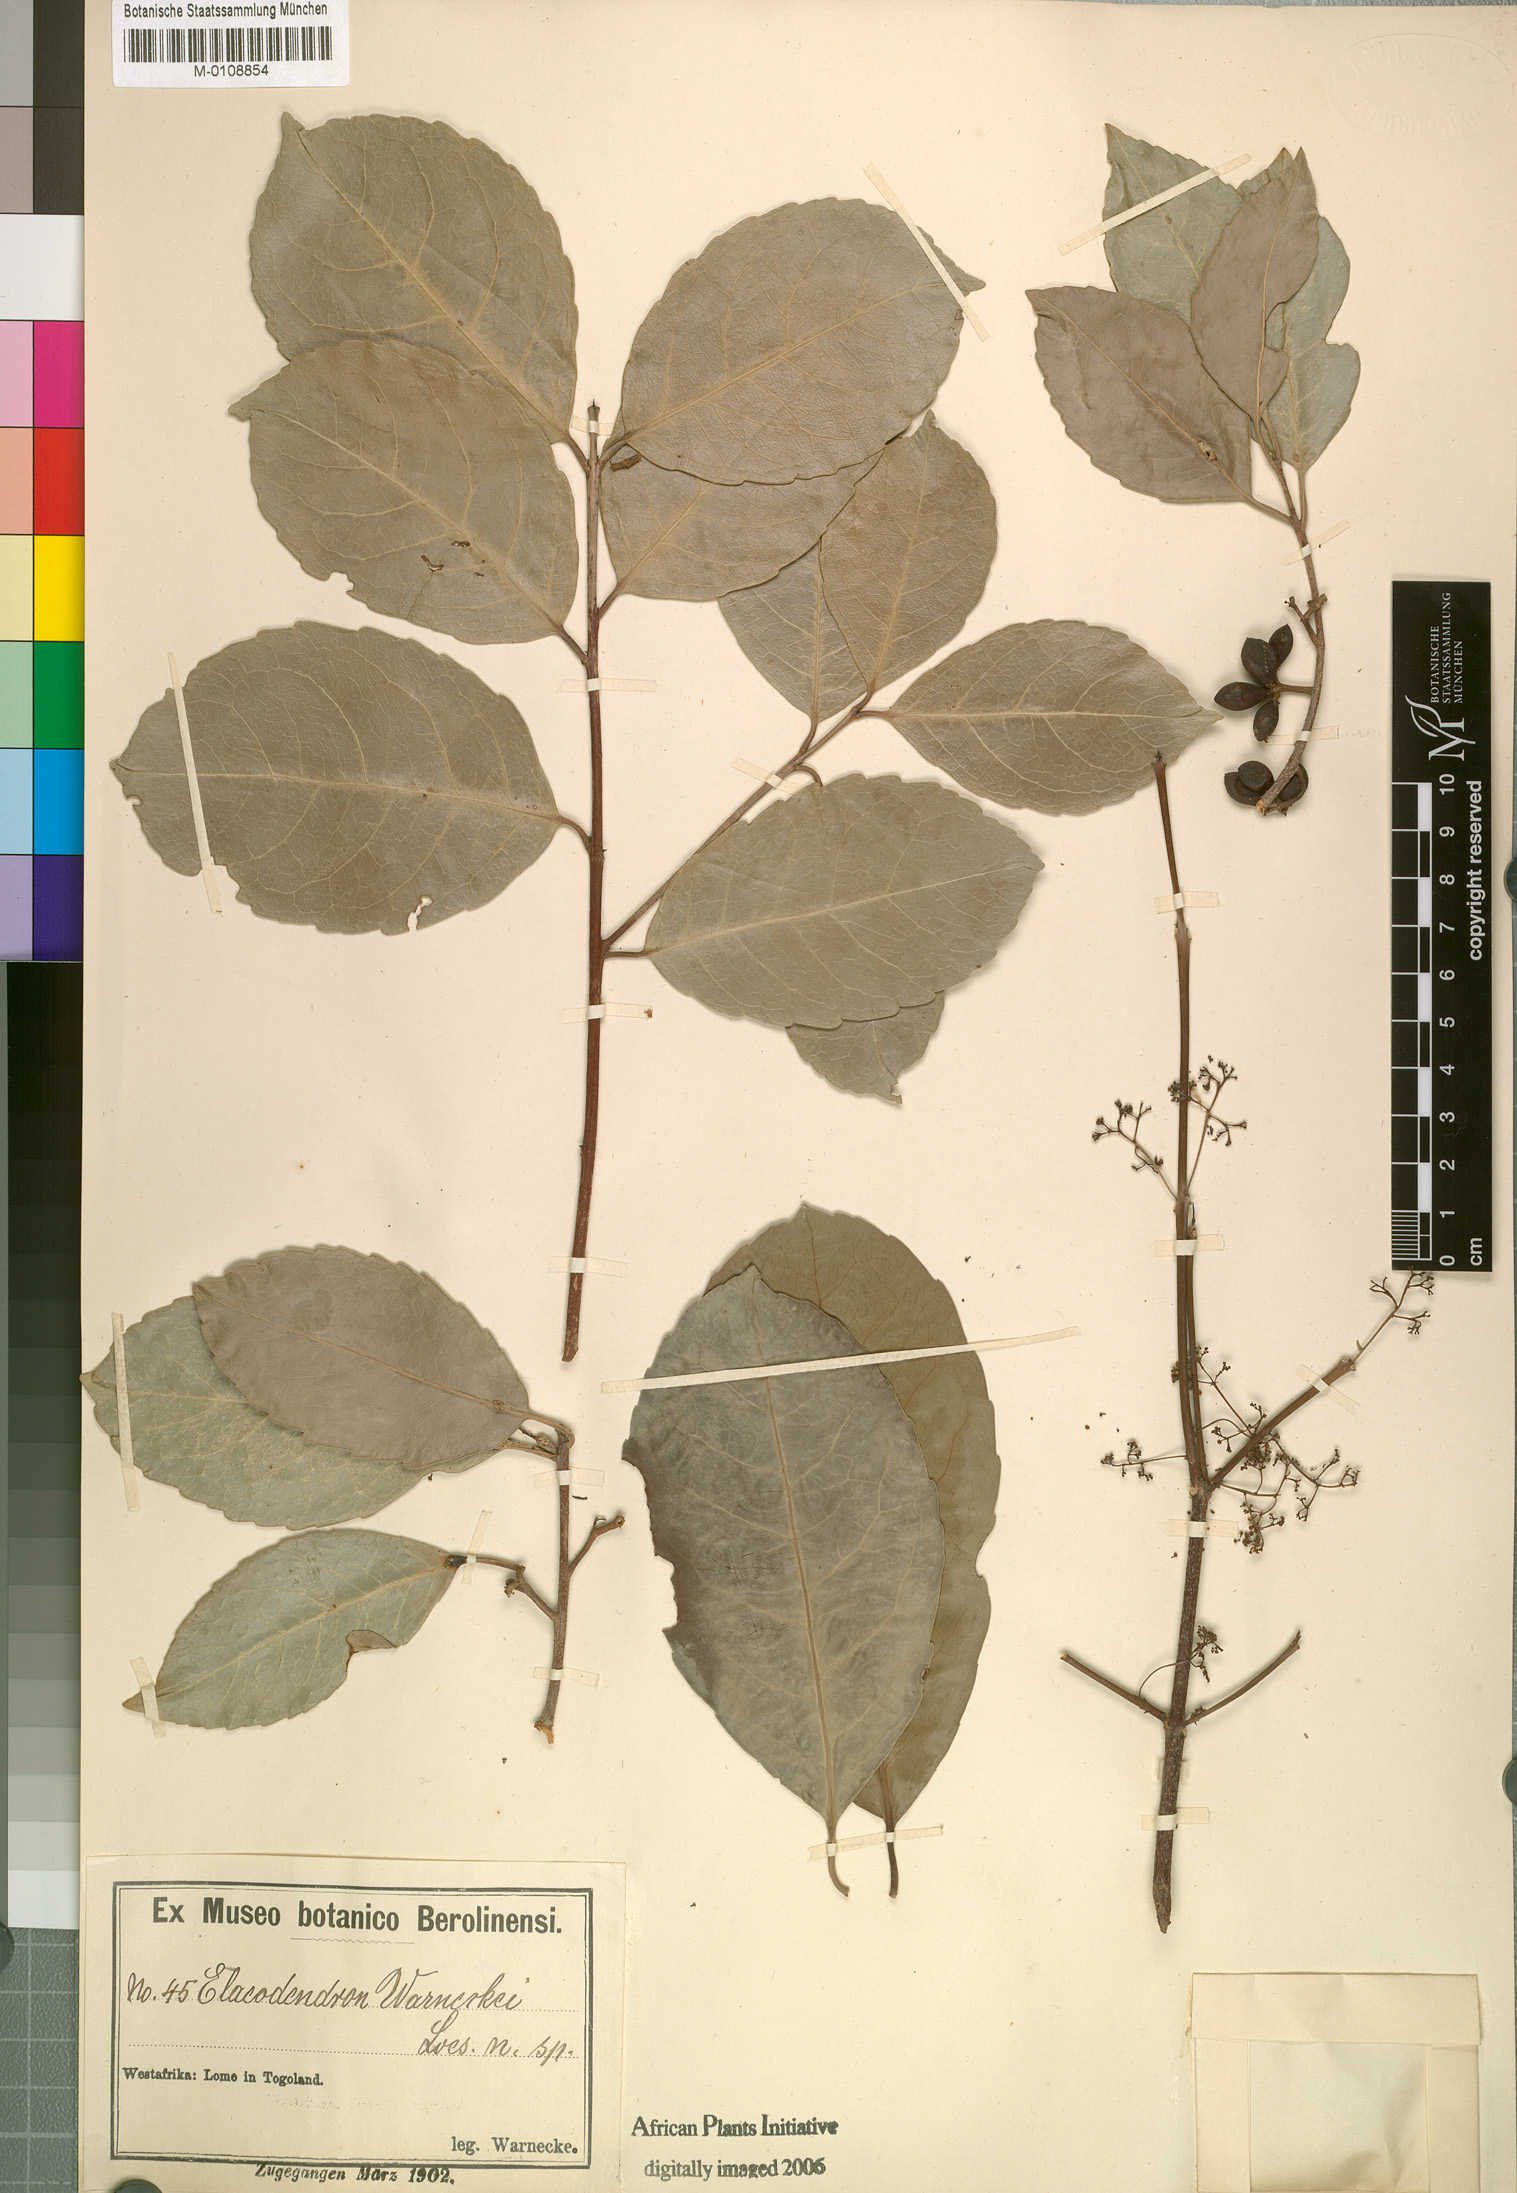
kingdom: Plantae
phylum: Tracheophyta
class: Magnoliopsida
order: Celastrales
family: Celastraceae
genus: Elaeodendron
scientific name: Elaeodendron buchananii
